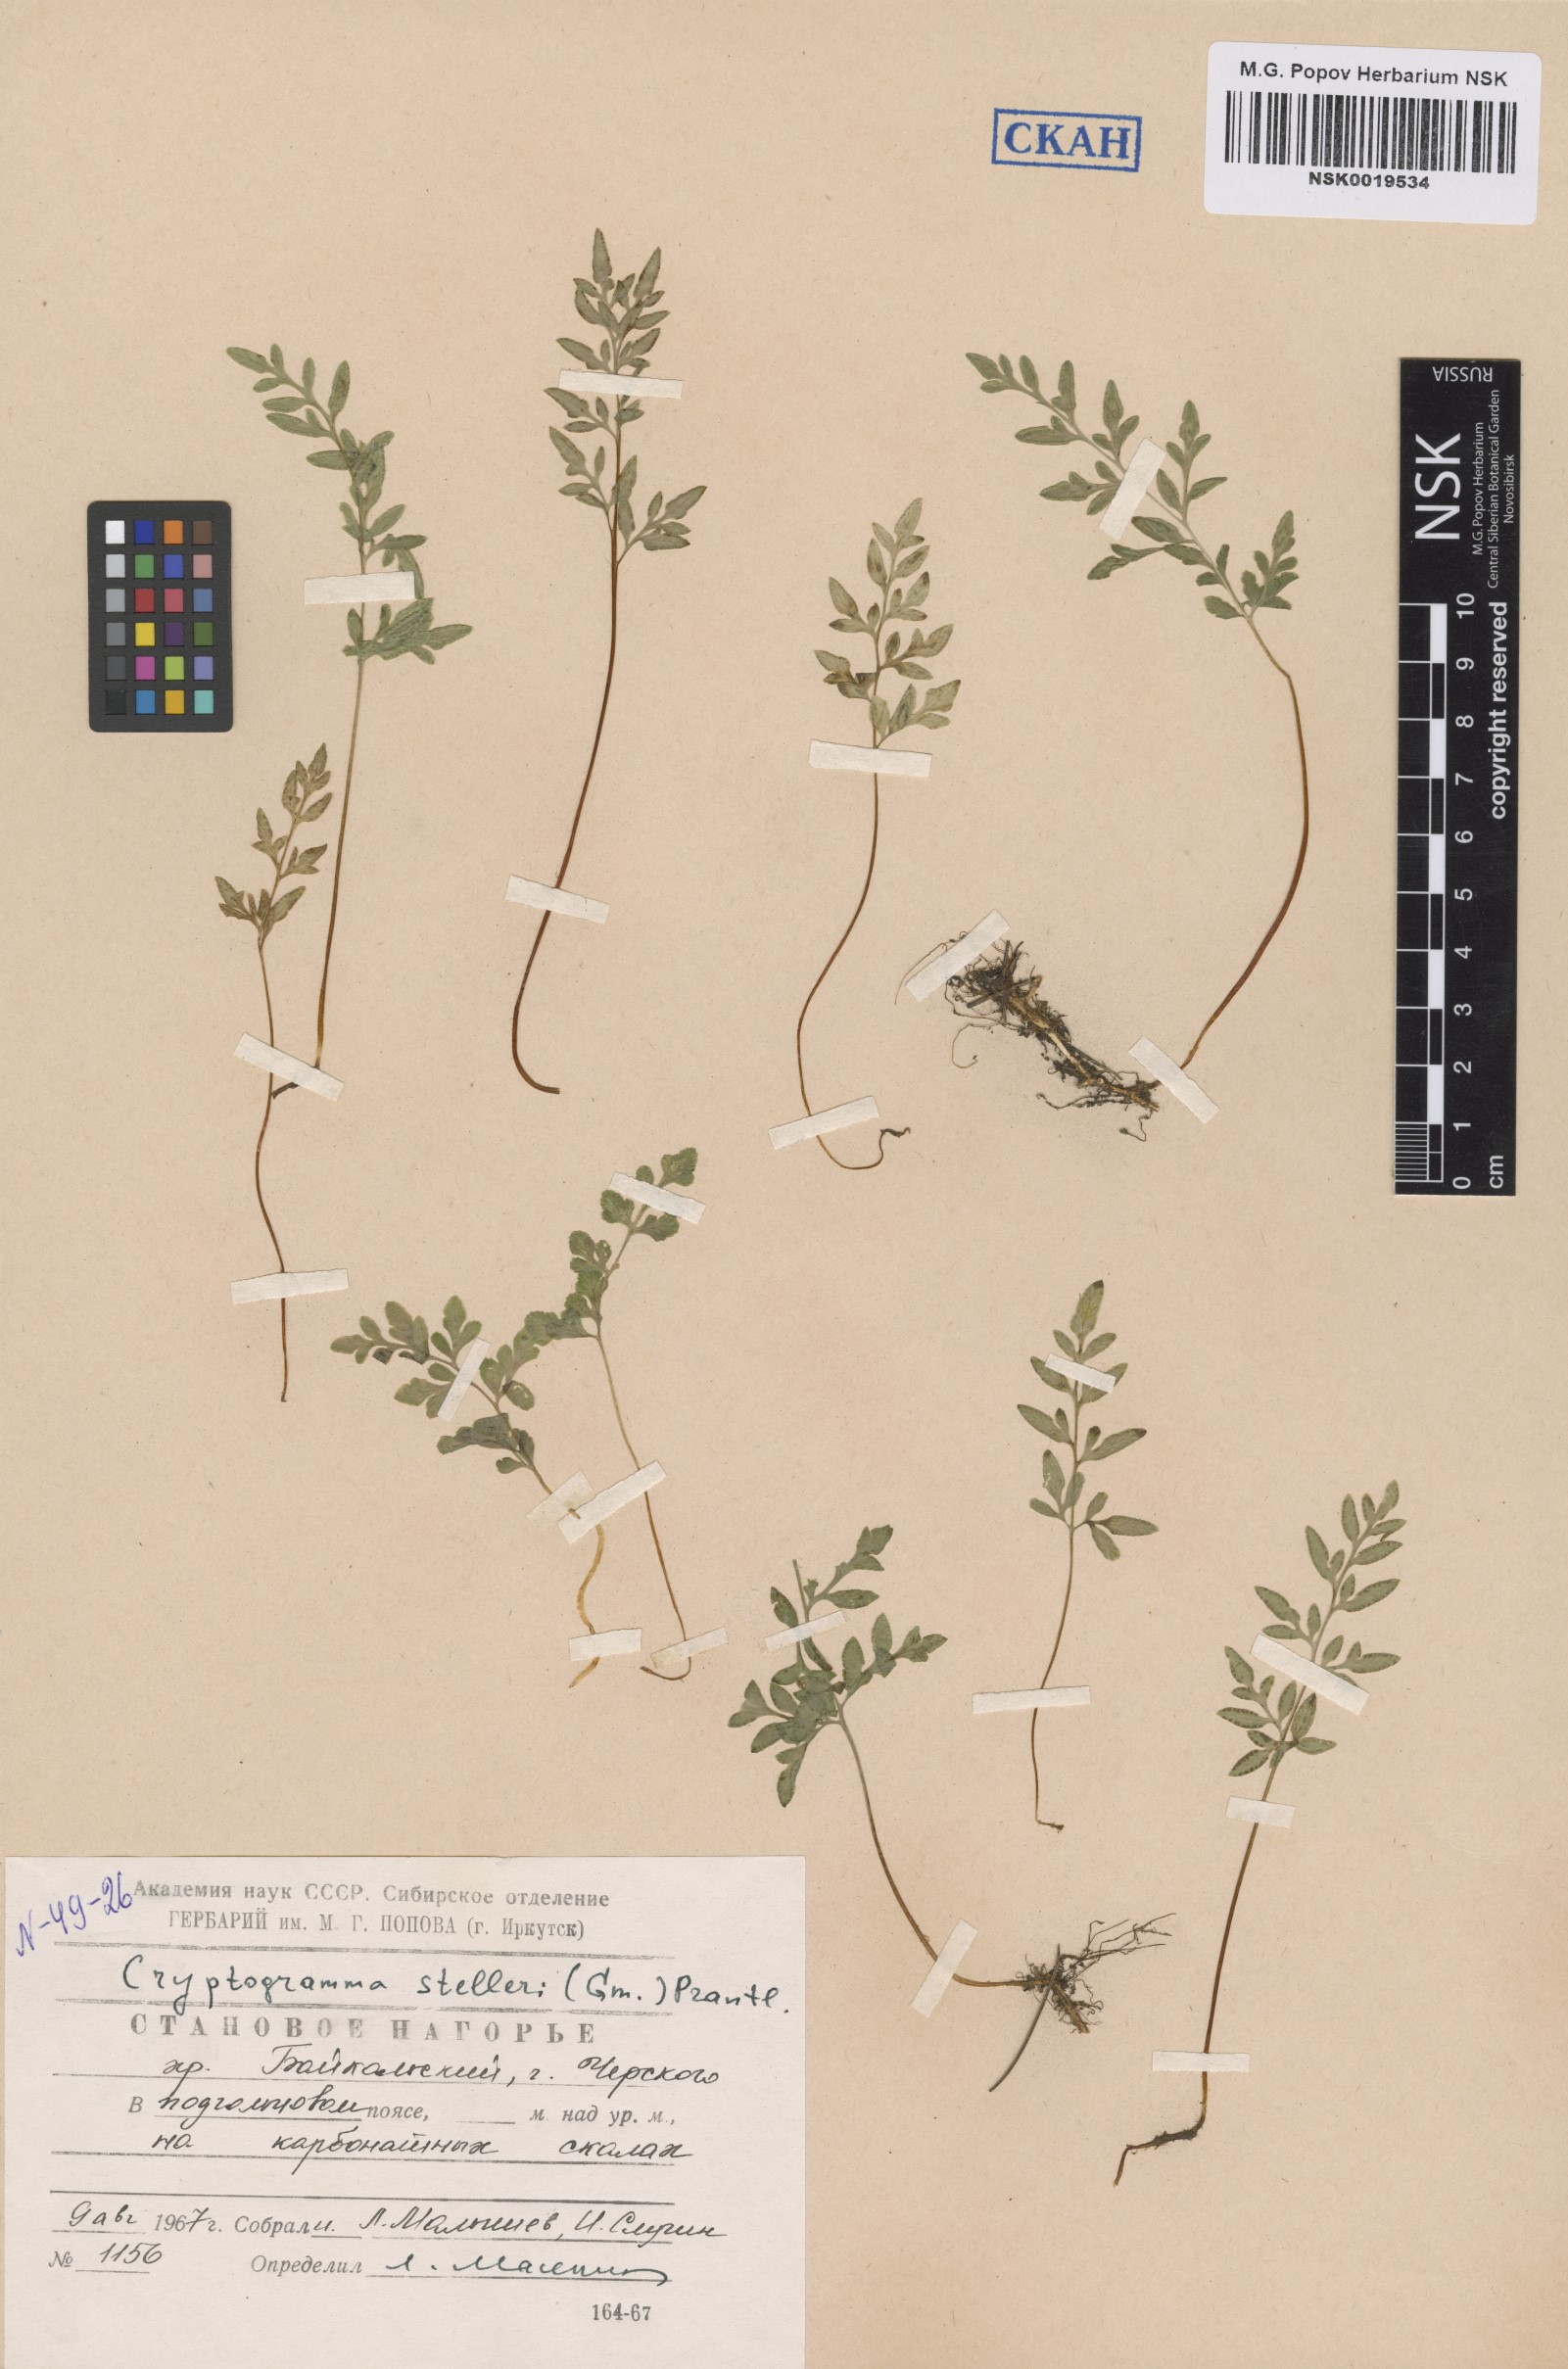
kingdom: Plantae
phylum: Tracheophyta
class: Polypodiopsida
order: Polypodiales
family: Pteridaceae
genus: Cryptogramma
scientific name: Cryptogramma stelleri
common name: Cliff-brake
